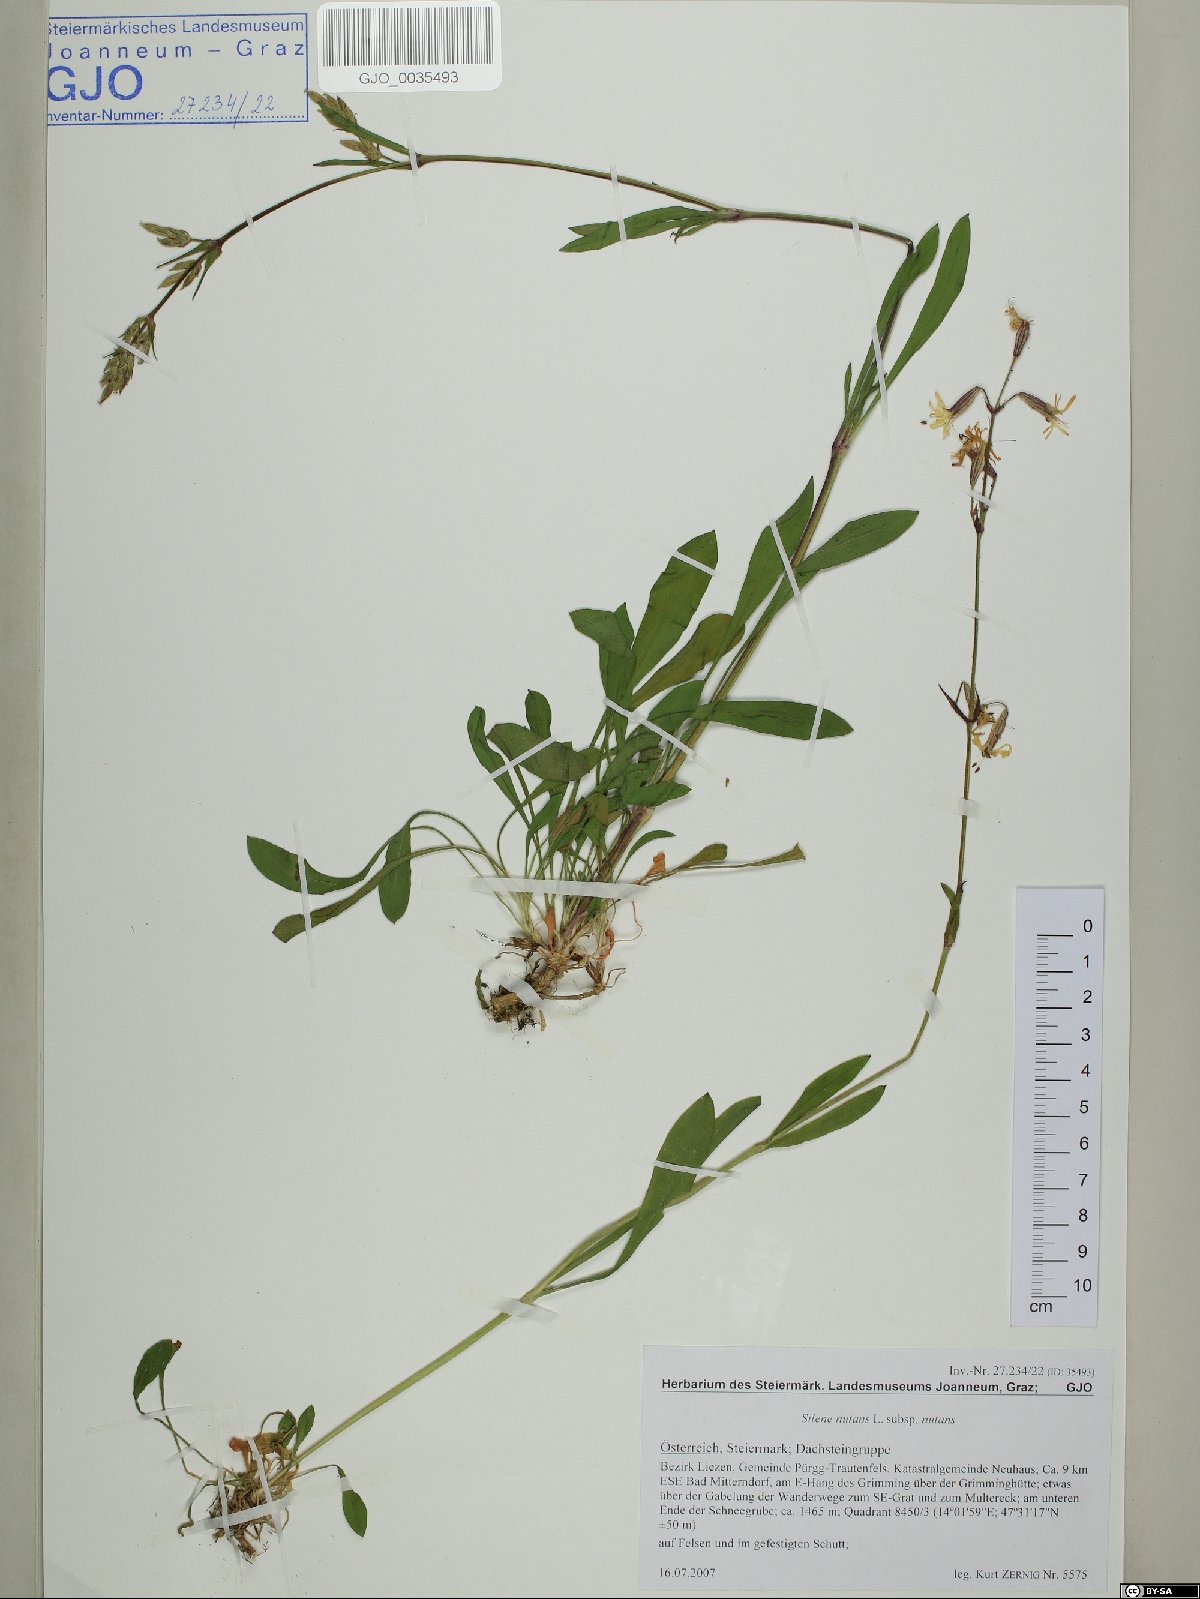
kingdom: Plantae
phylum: Tracheophyta
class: Magnoliopsida
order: Caryophyllales
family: Caryophyllaceae
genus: Silene
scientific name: Silene nutans
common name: Nottingham catchfly
